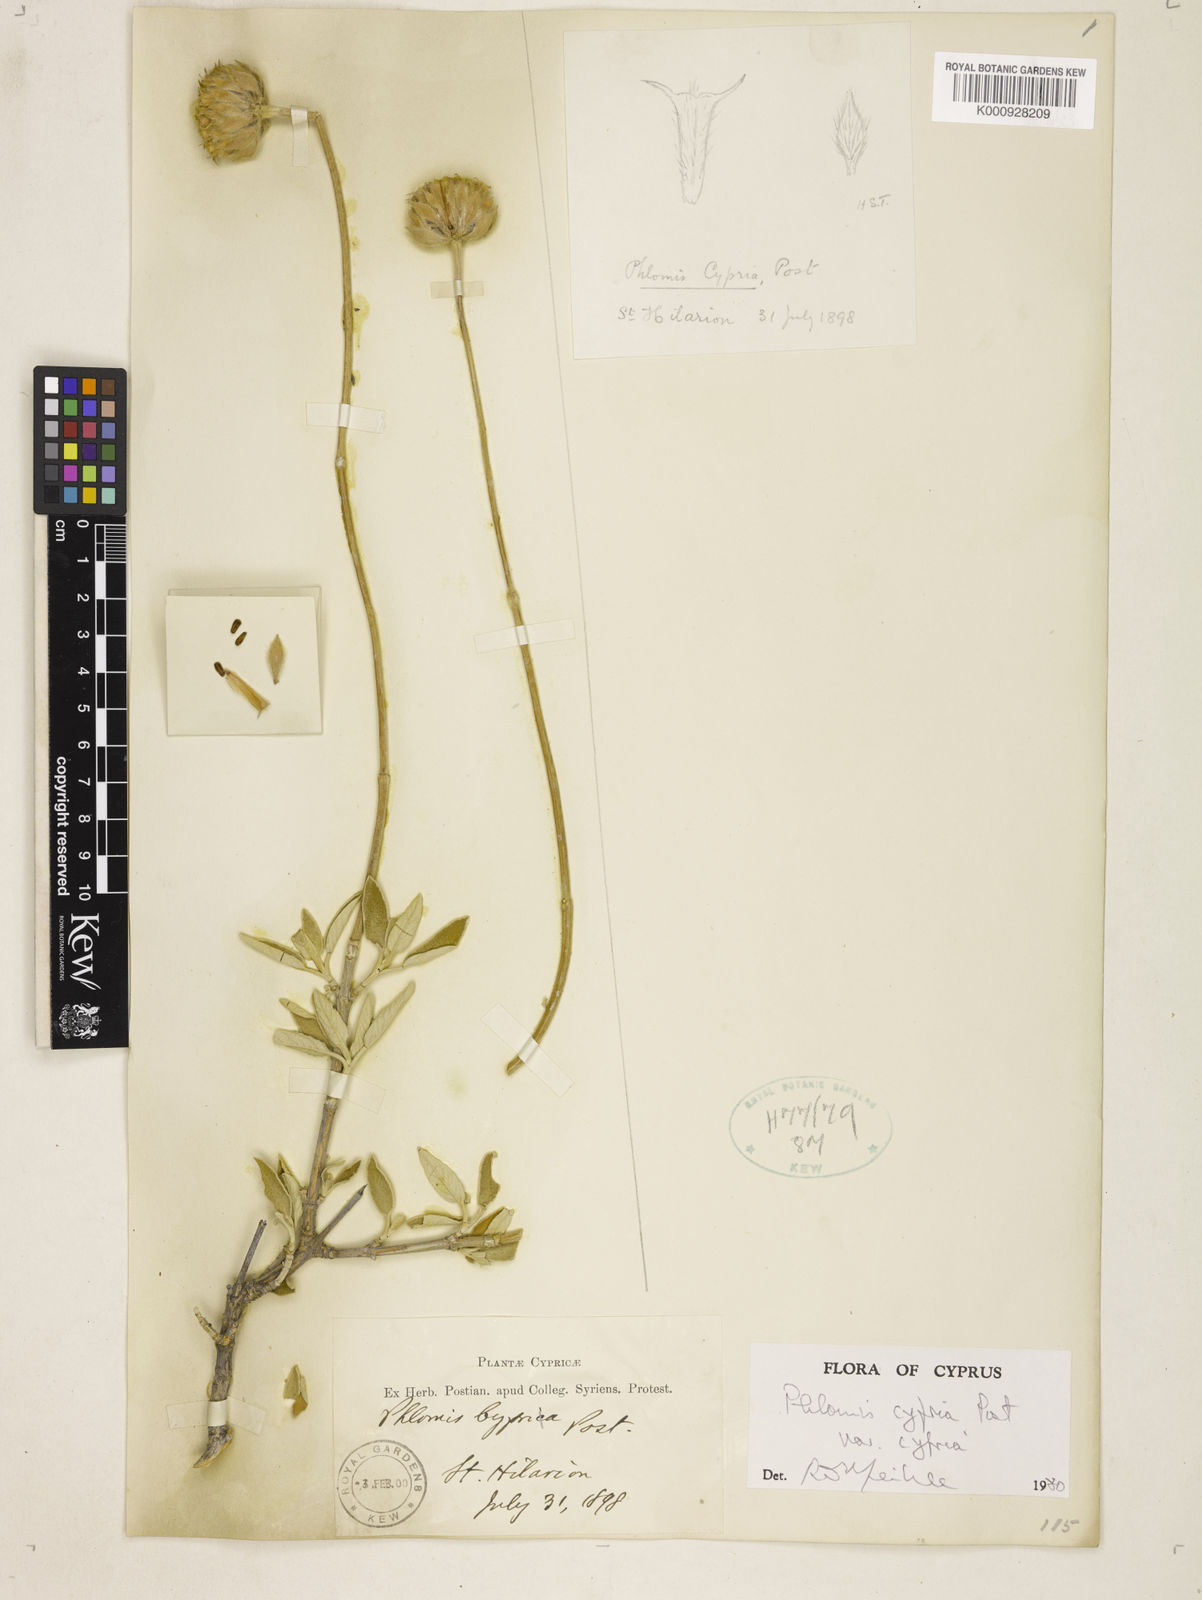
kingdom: Plantae
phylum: Tracheophyta
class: Magnoliopsida
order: Lamiales
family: Lamiaceae
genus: Phlomis
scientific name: Phlomis cypria
